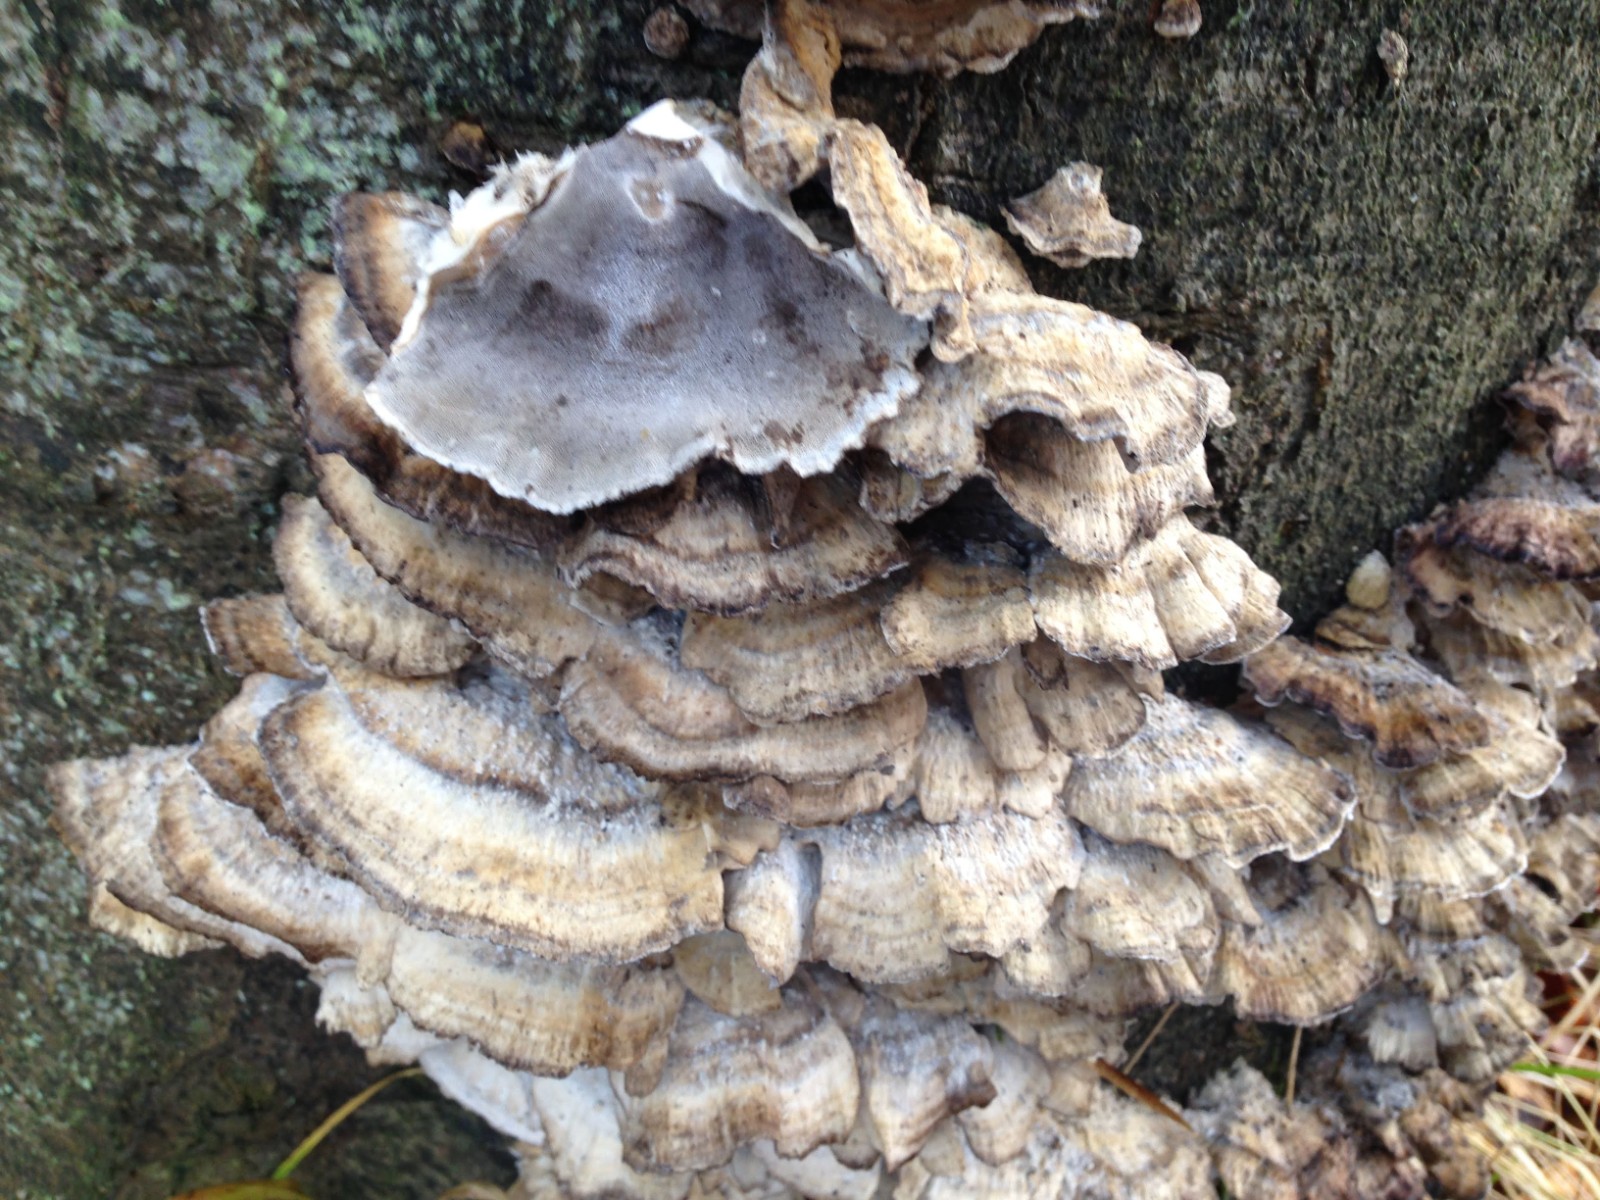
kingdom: Fungi
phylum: Basidiomycota
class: Agaricomycetes
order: Polyporales
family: Phanerochaetaceae
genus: Bjerkandera
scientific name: Bjerkandera adusta
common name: sveden sodporesvamp
